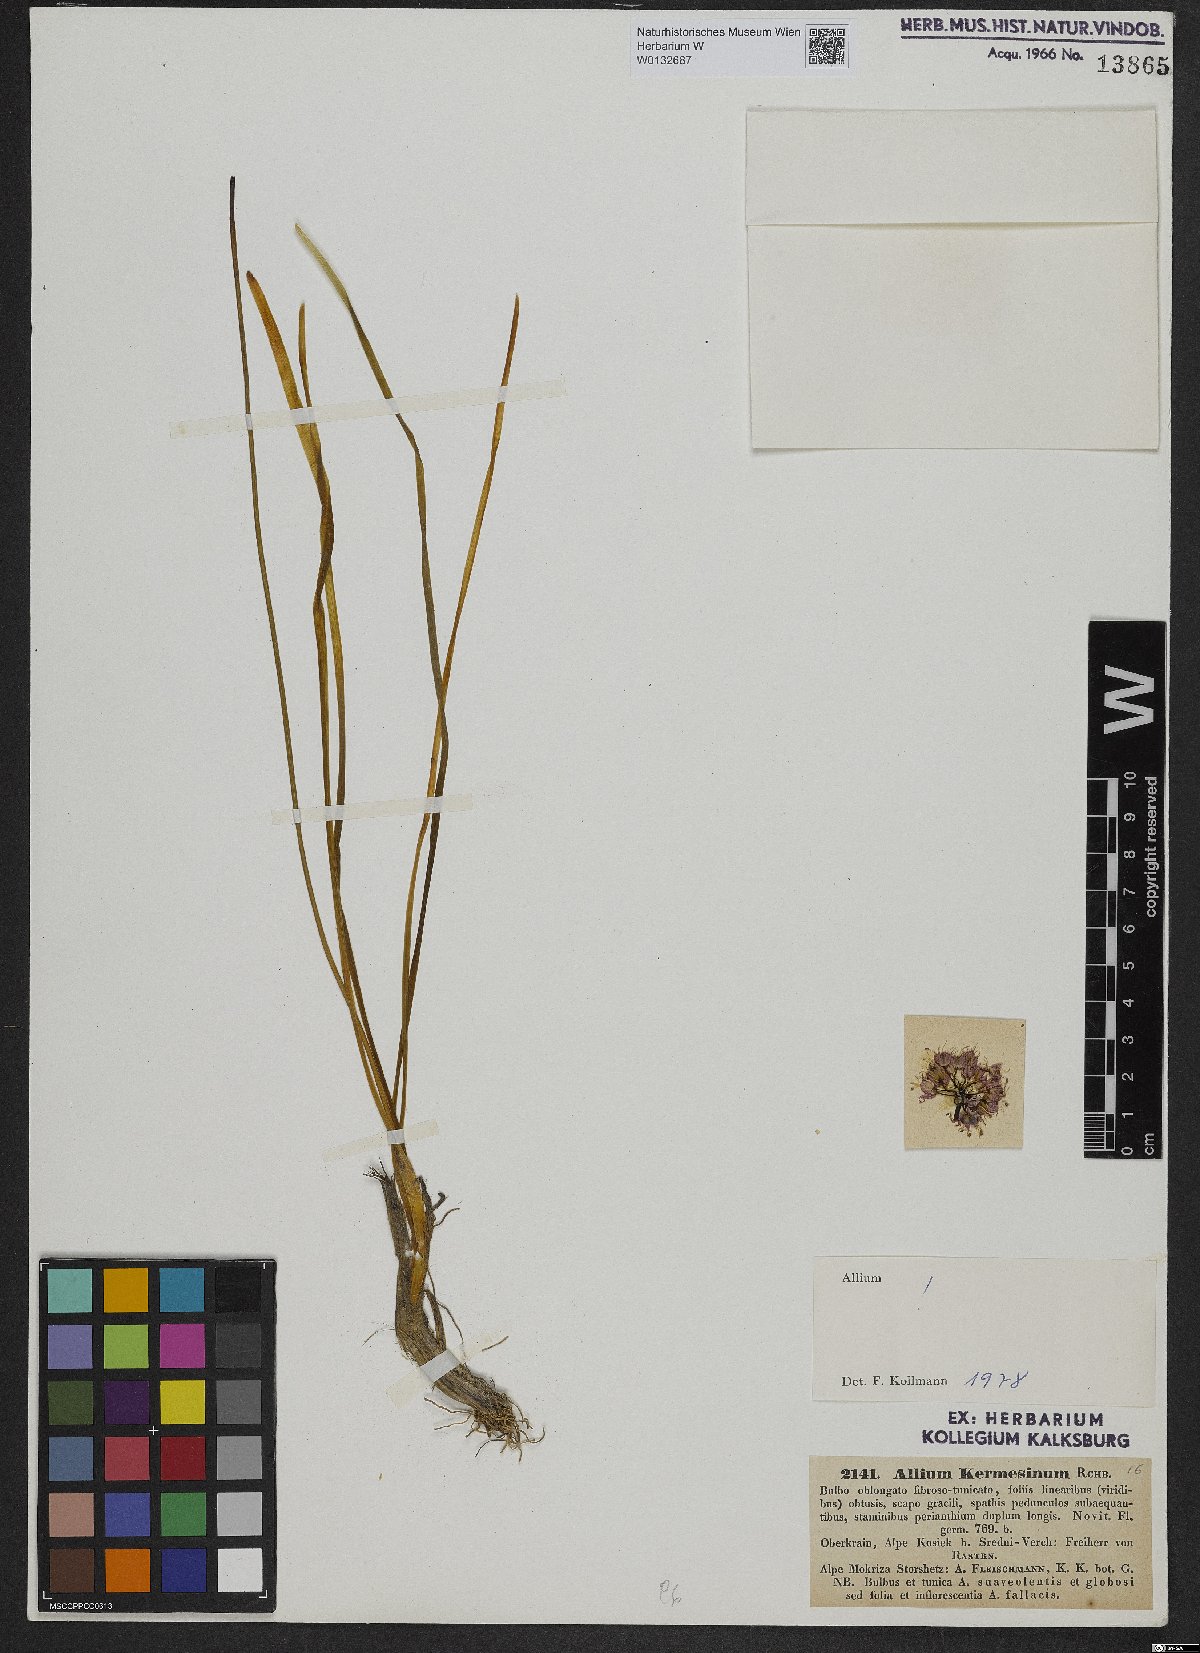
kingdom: Plantae
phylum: Tracheophyta
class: Liliopsida
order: Asparagales
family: Amaryllidaceae
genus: Allium
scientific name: Allium kermesinum
